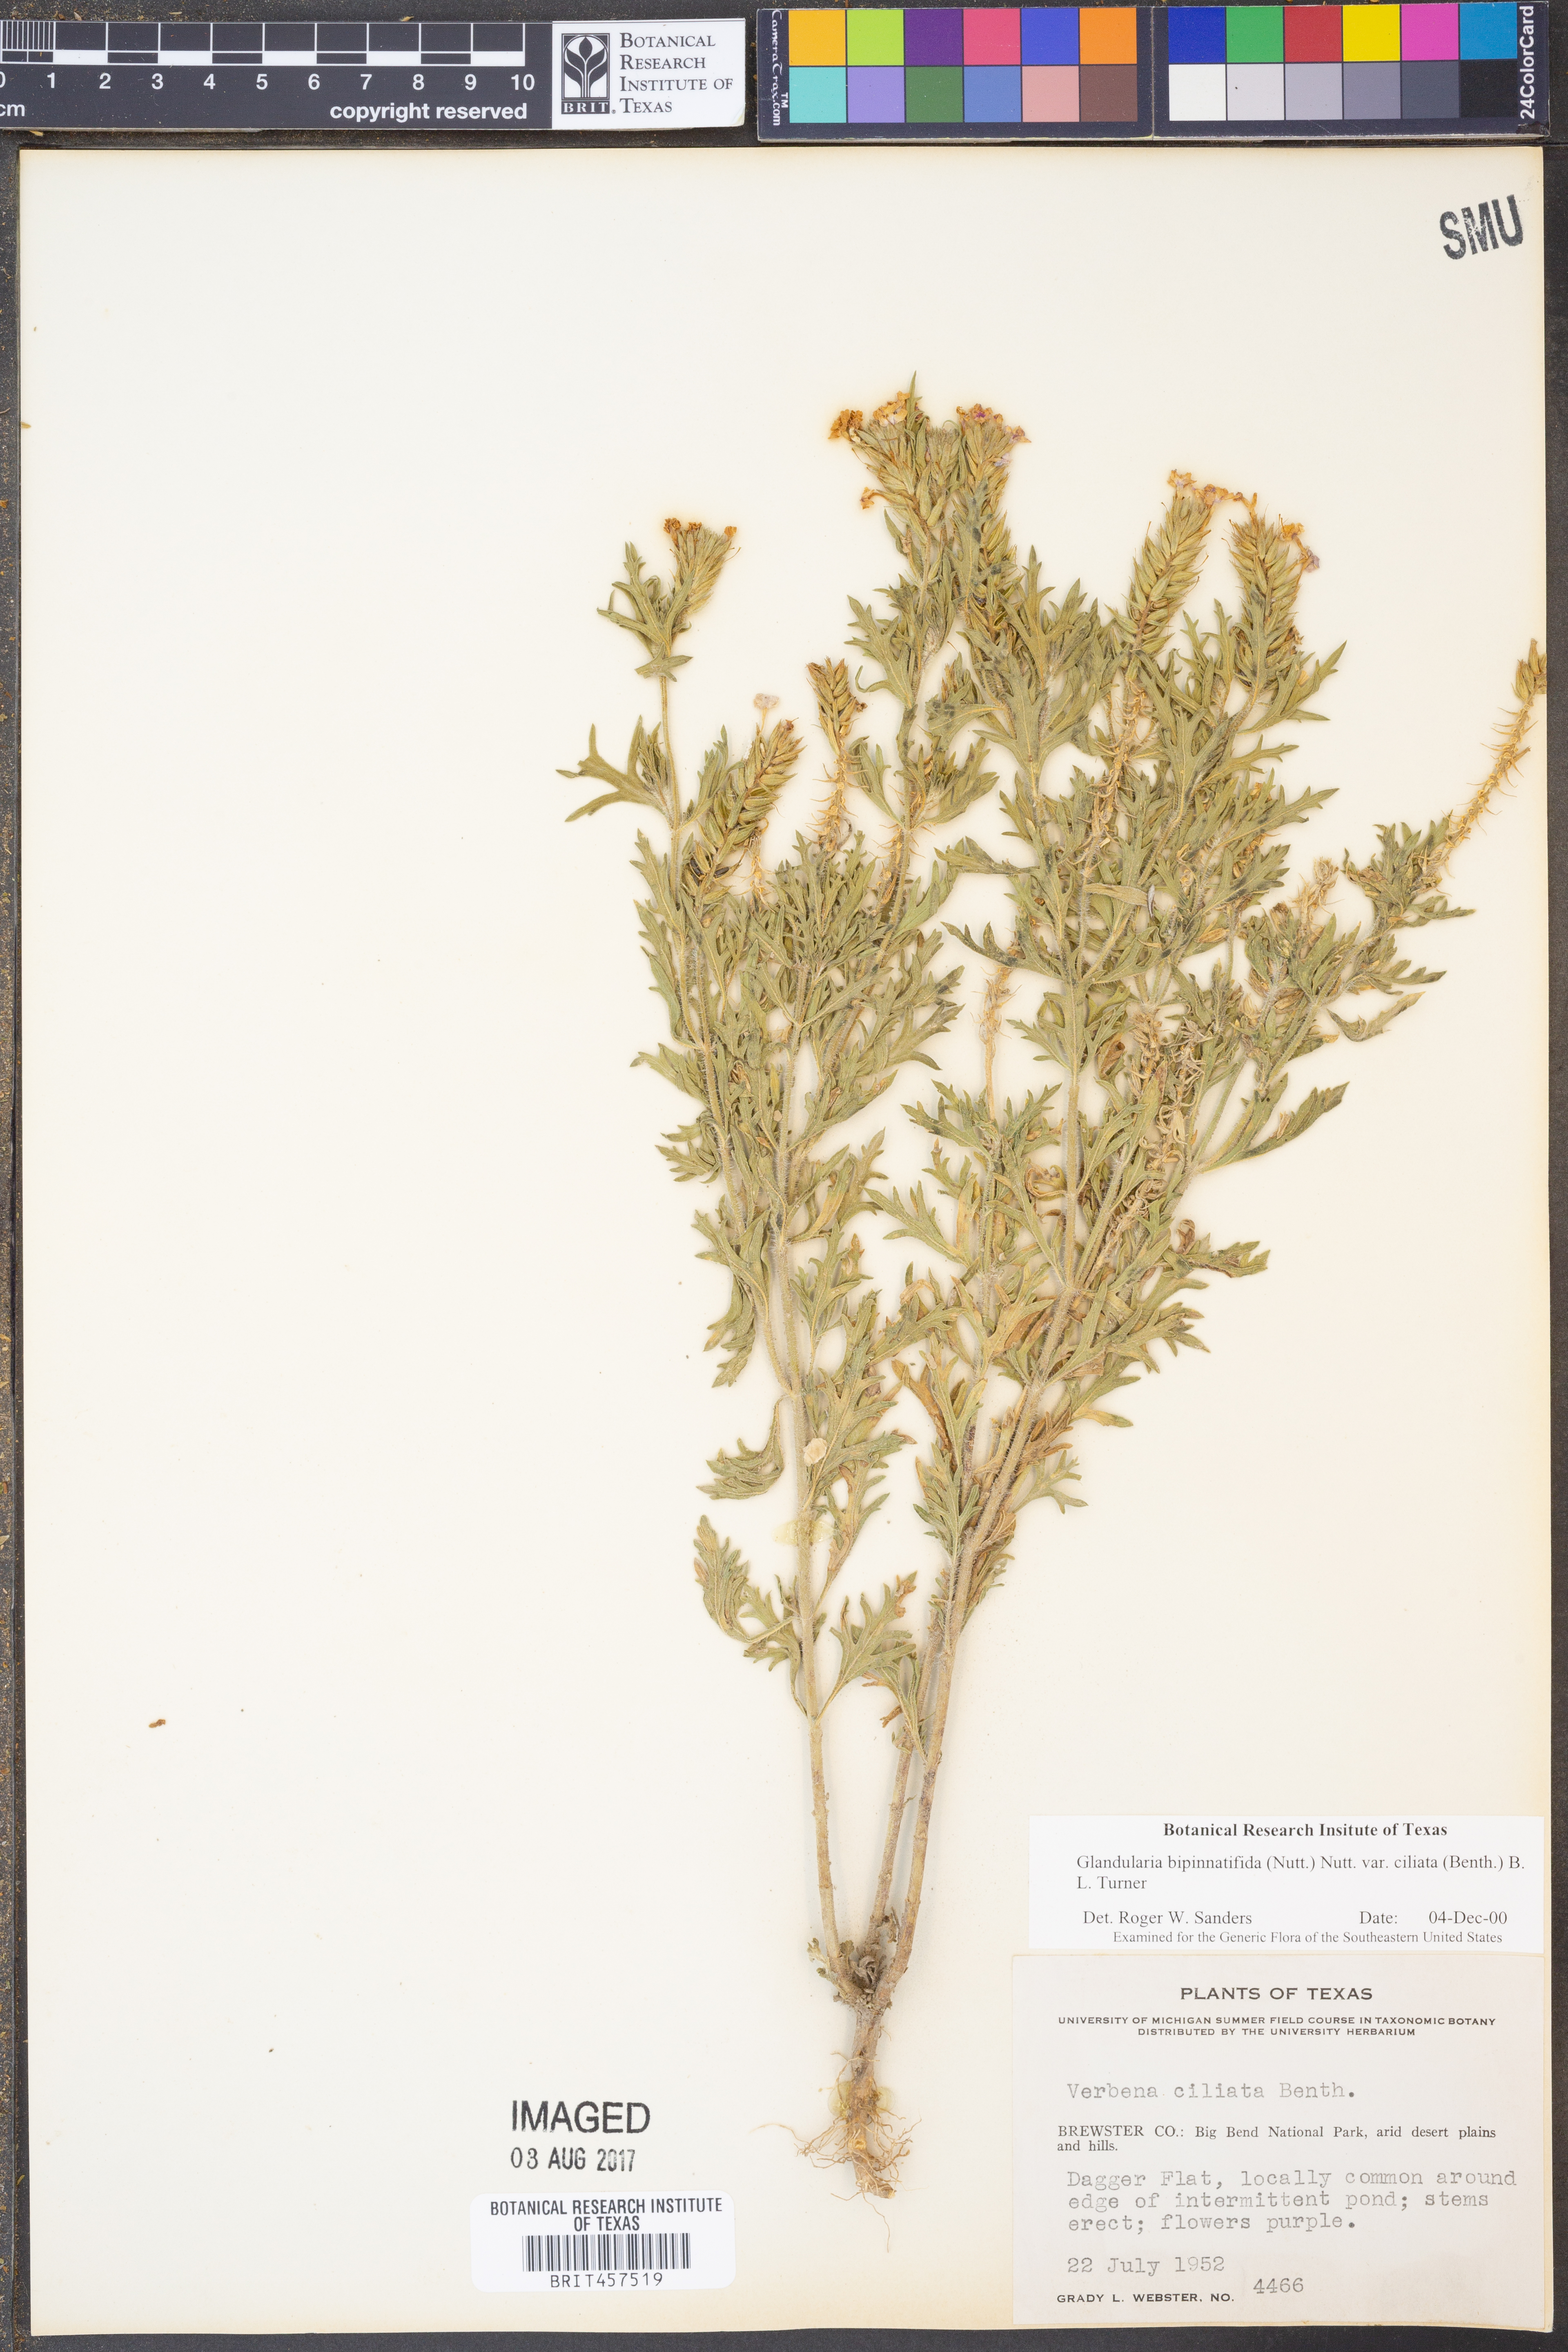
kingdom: Plantae
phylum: Tracheophyta
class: Magnoliopsida
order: Lamiales
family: Verbenaceae
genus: Verbena
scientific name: Verbena bipinnatifida
